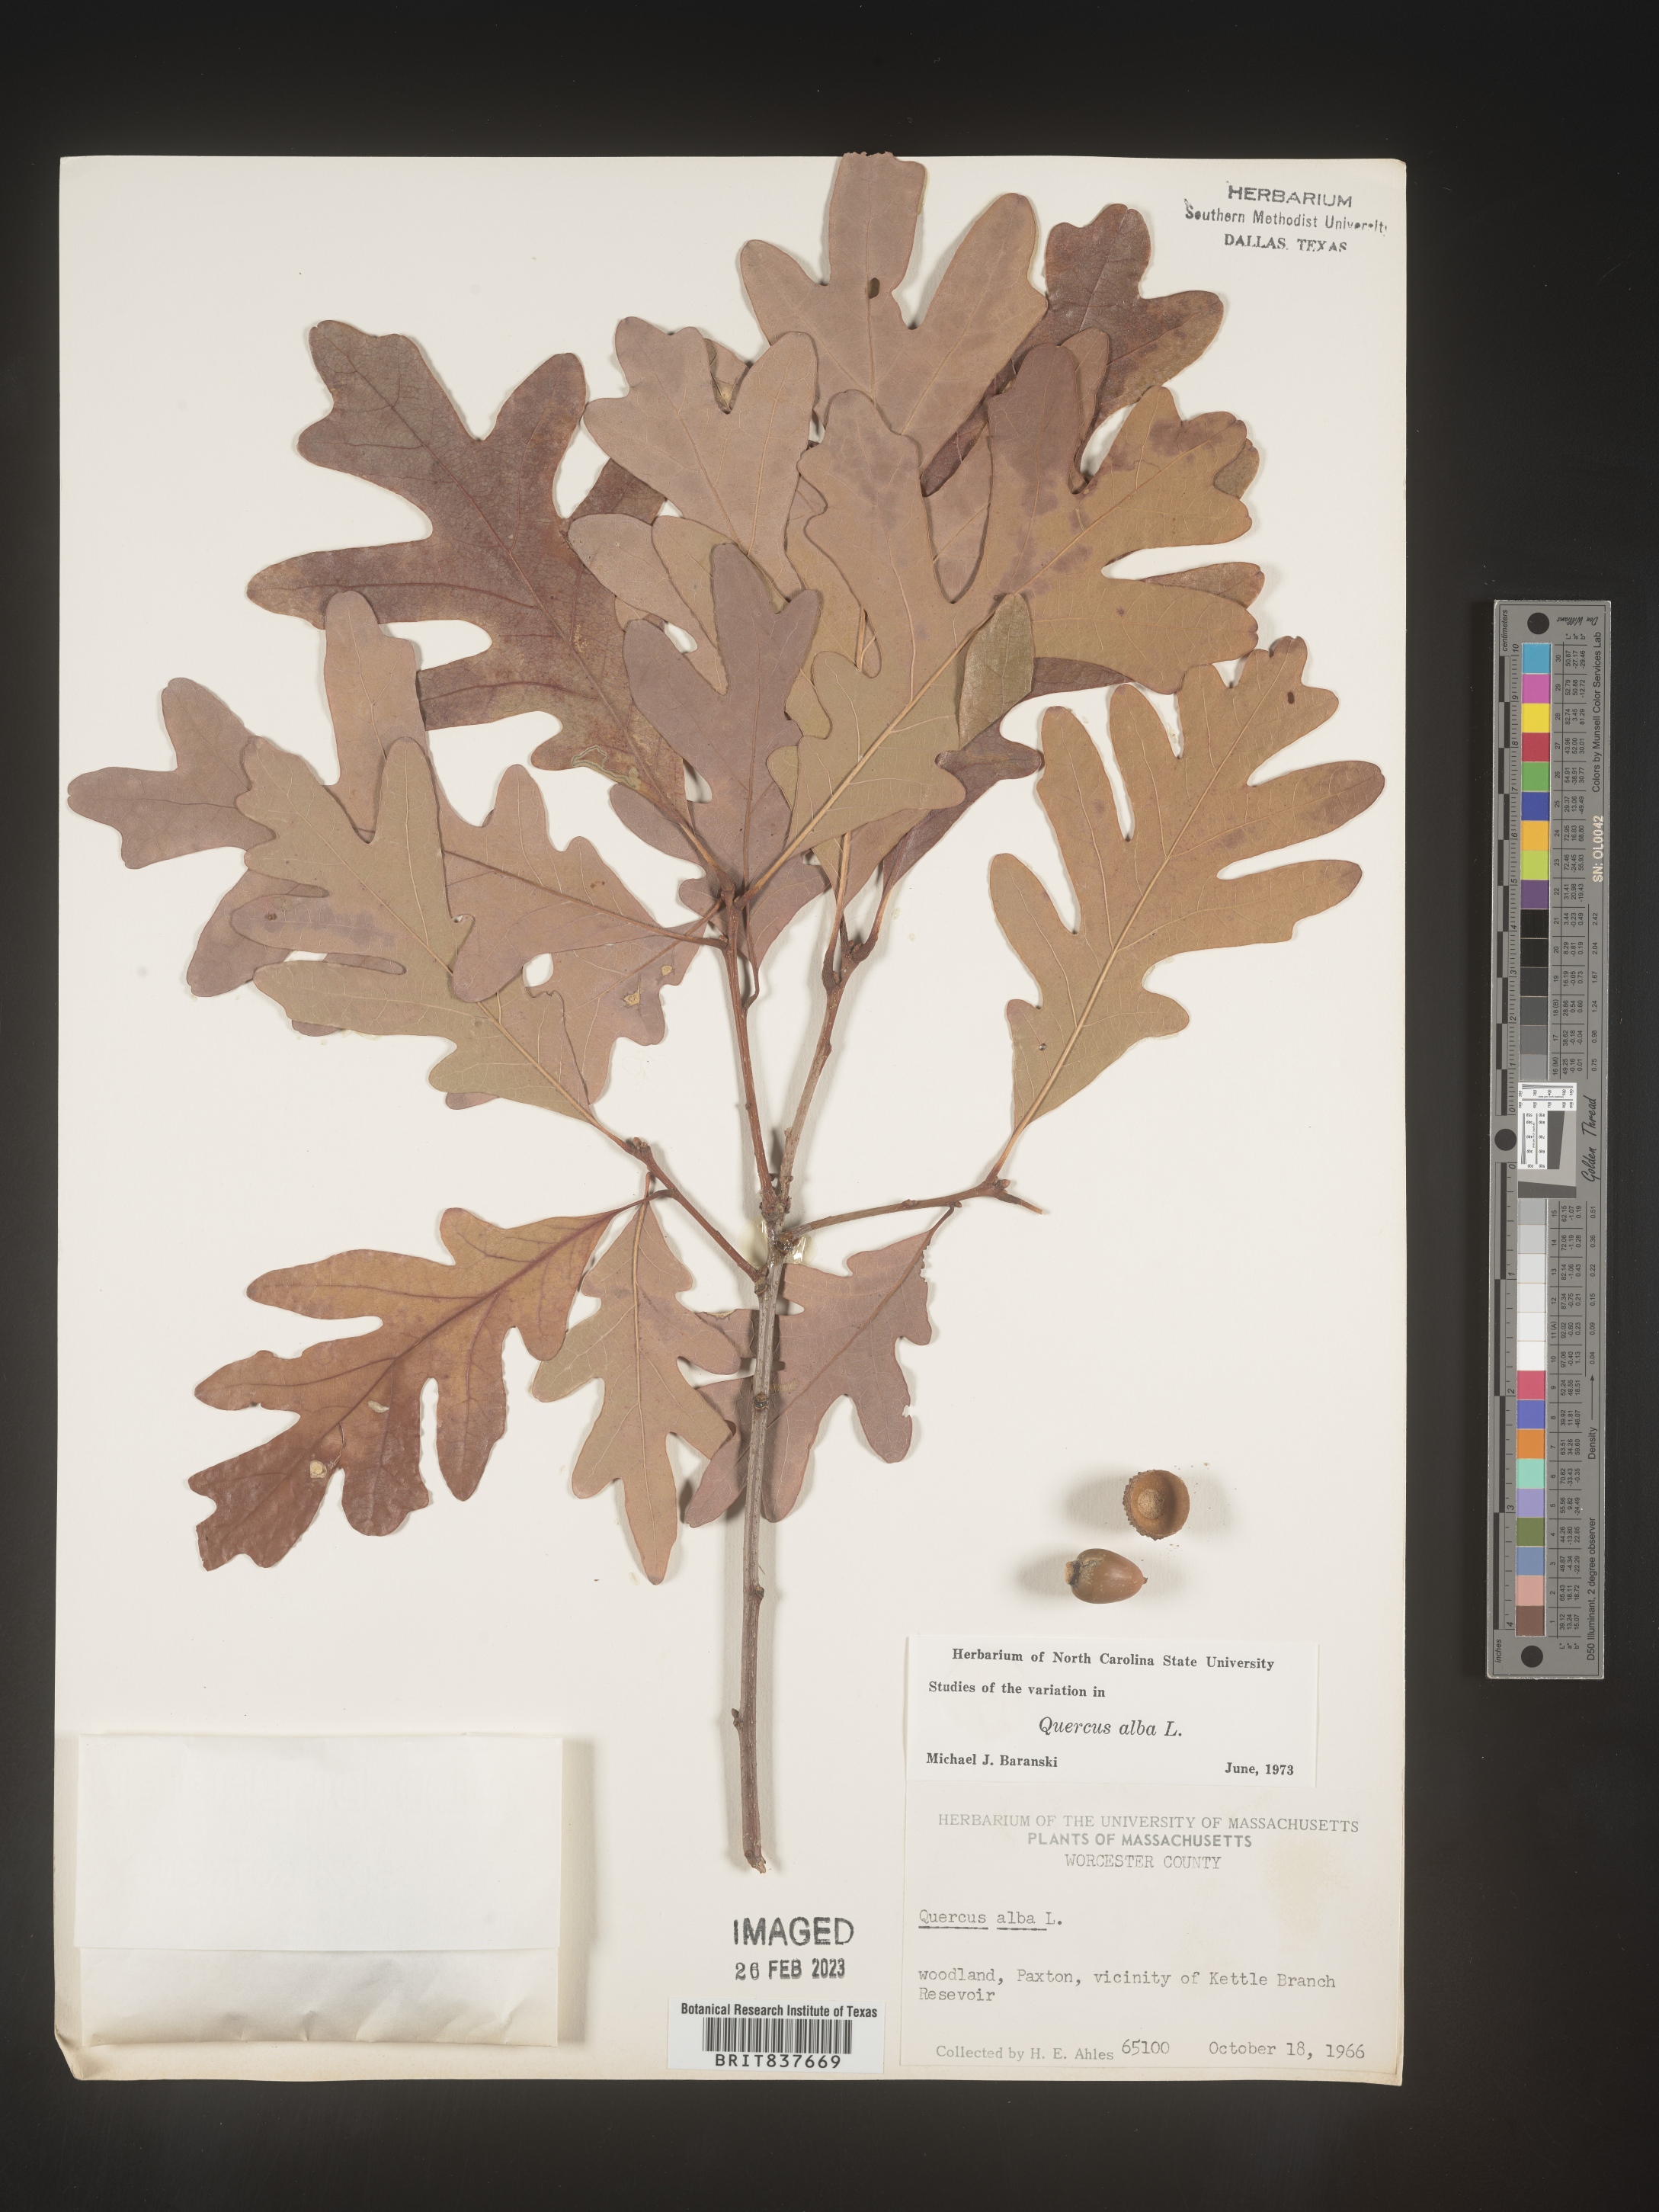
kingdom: Plantae
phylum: Tracheophyta
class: Magnoliopsida
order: Fagales
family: Fagaceae
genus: Quercus
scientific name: Quercus alba
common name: White oak
